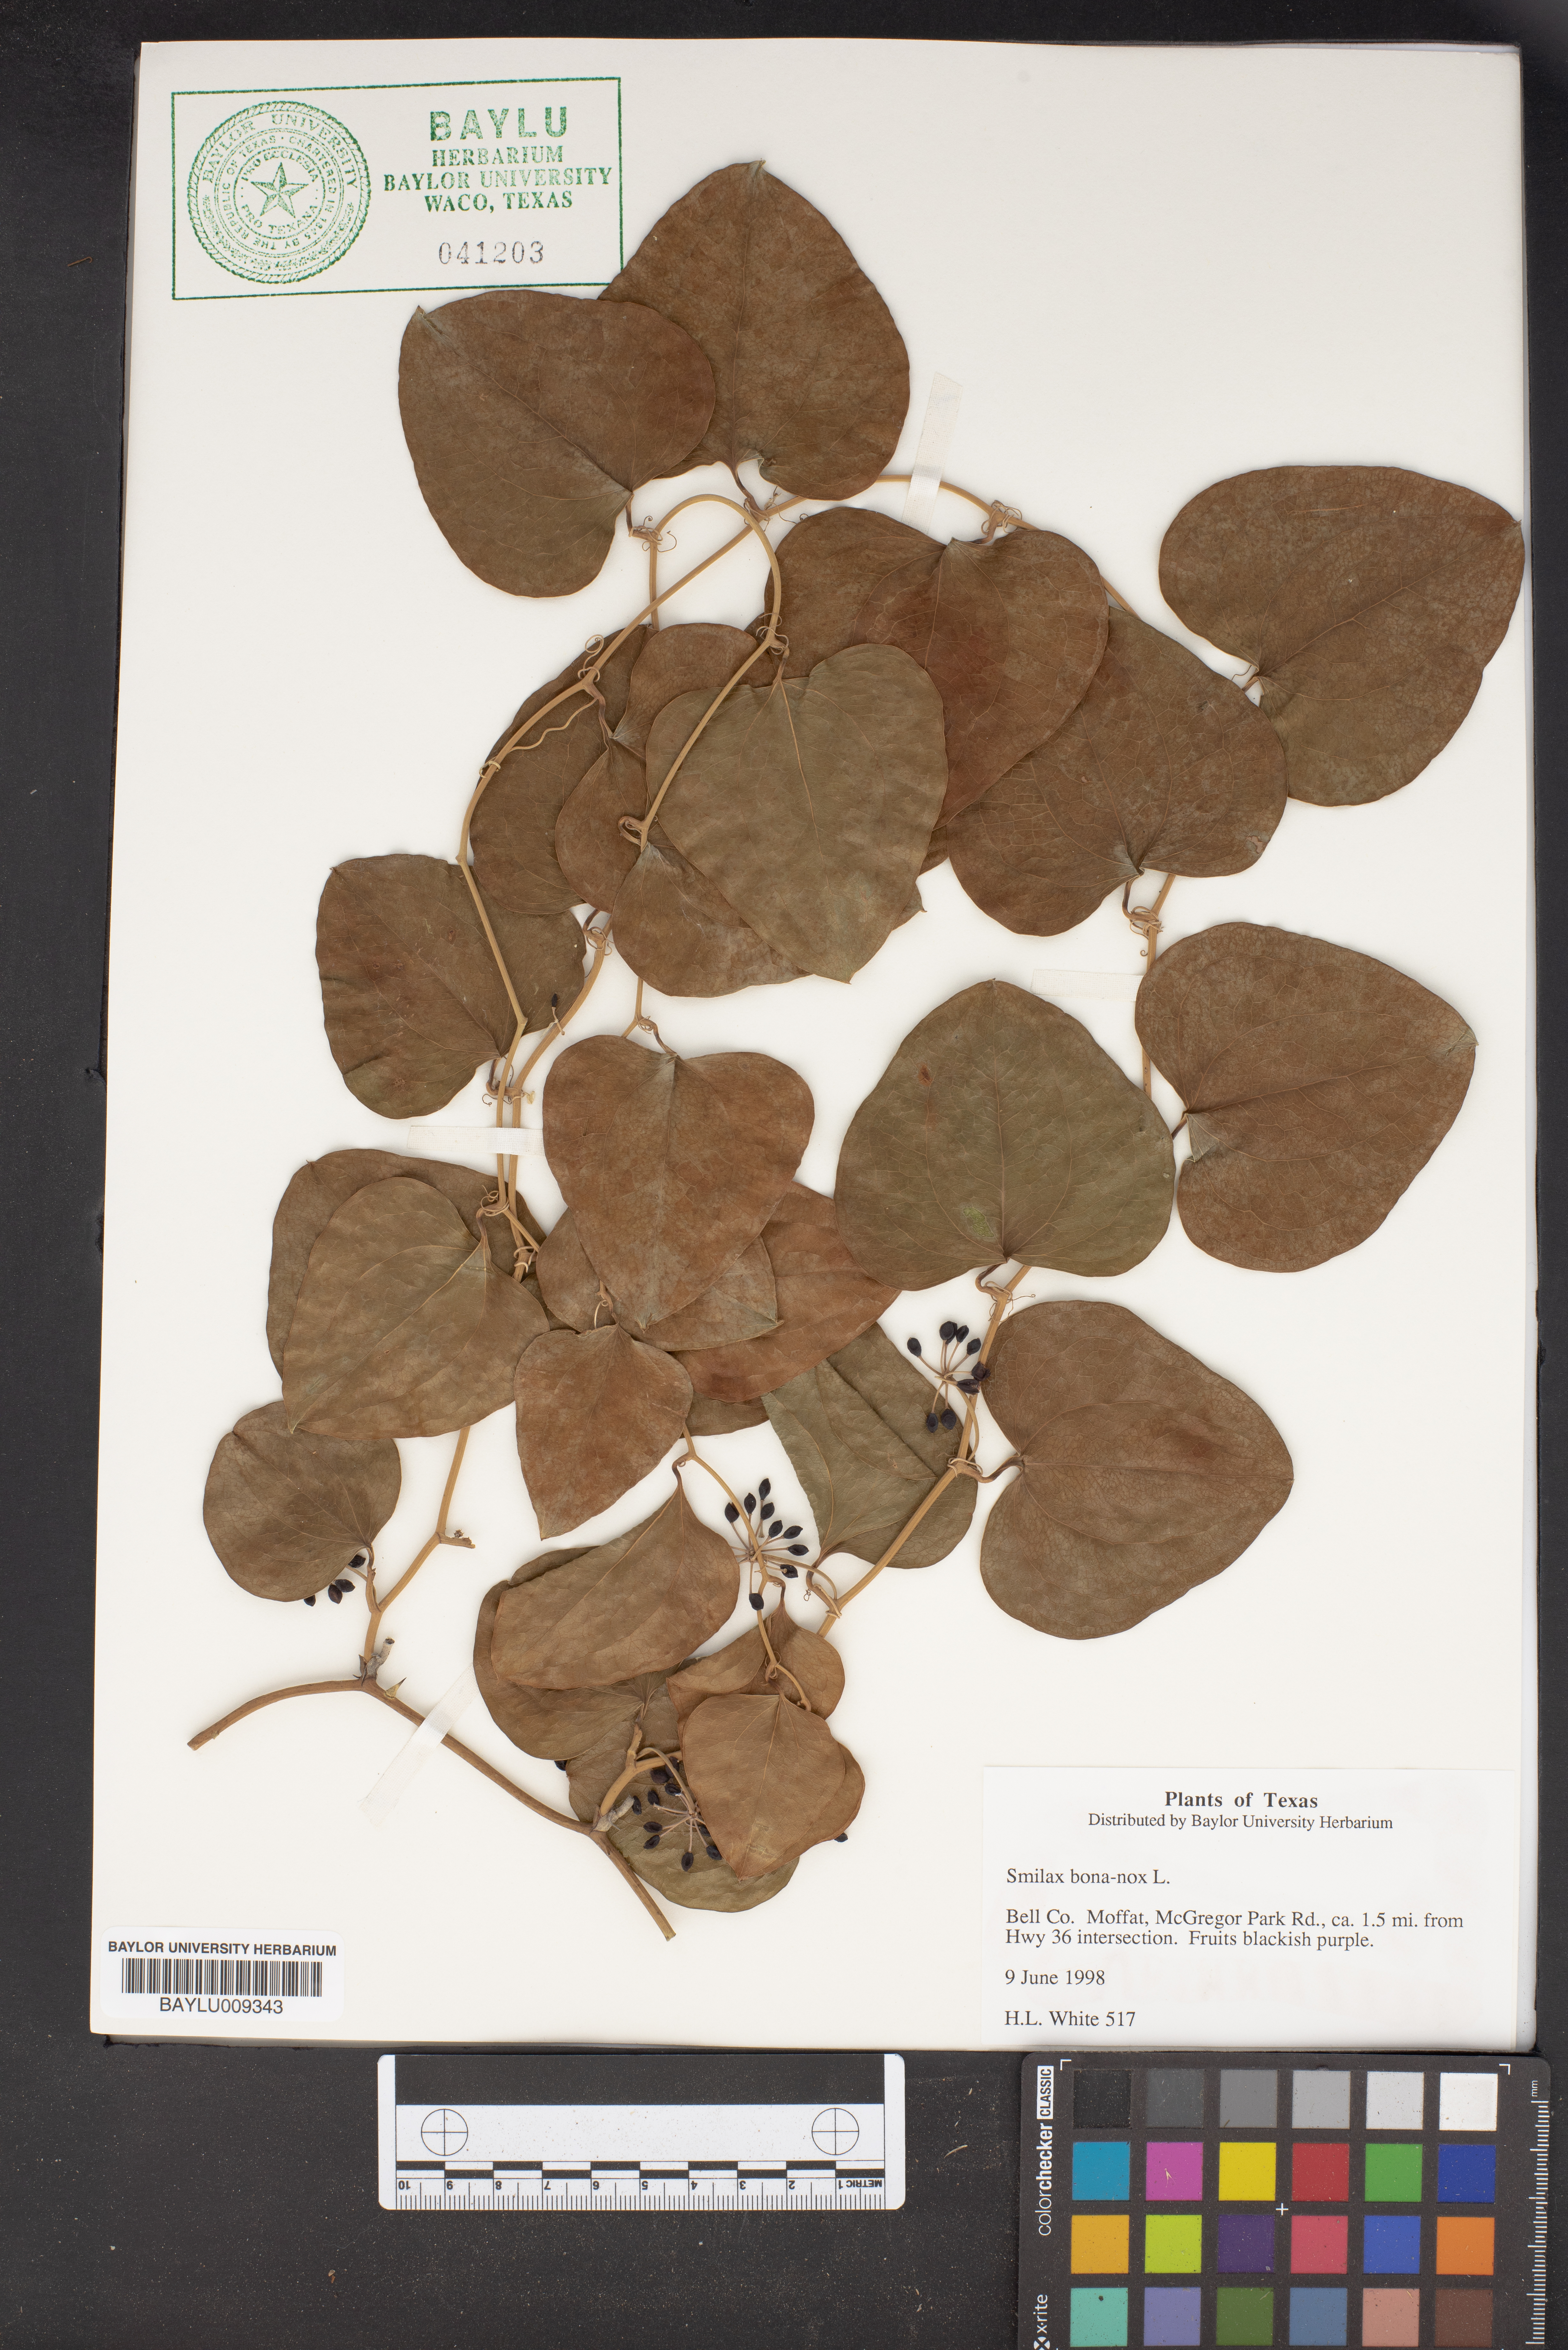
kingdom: Plantae
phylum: Tracheophyta
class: Liliopsida
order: Liliales
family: Smilacaceae
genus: Smilax
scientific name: Smilax bona-nox
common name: Catbrier
